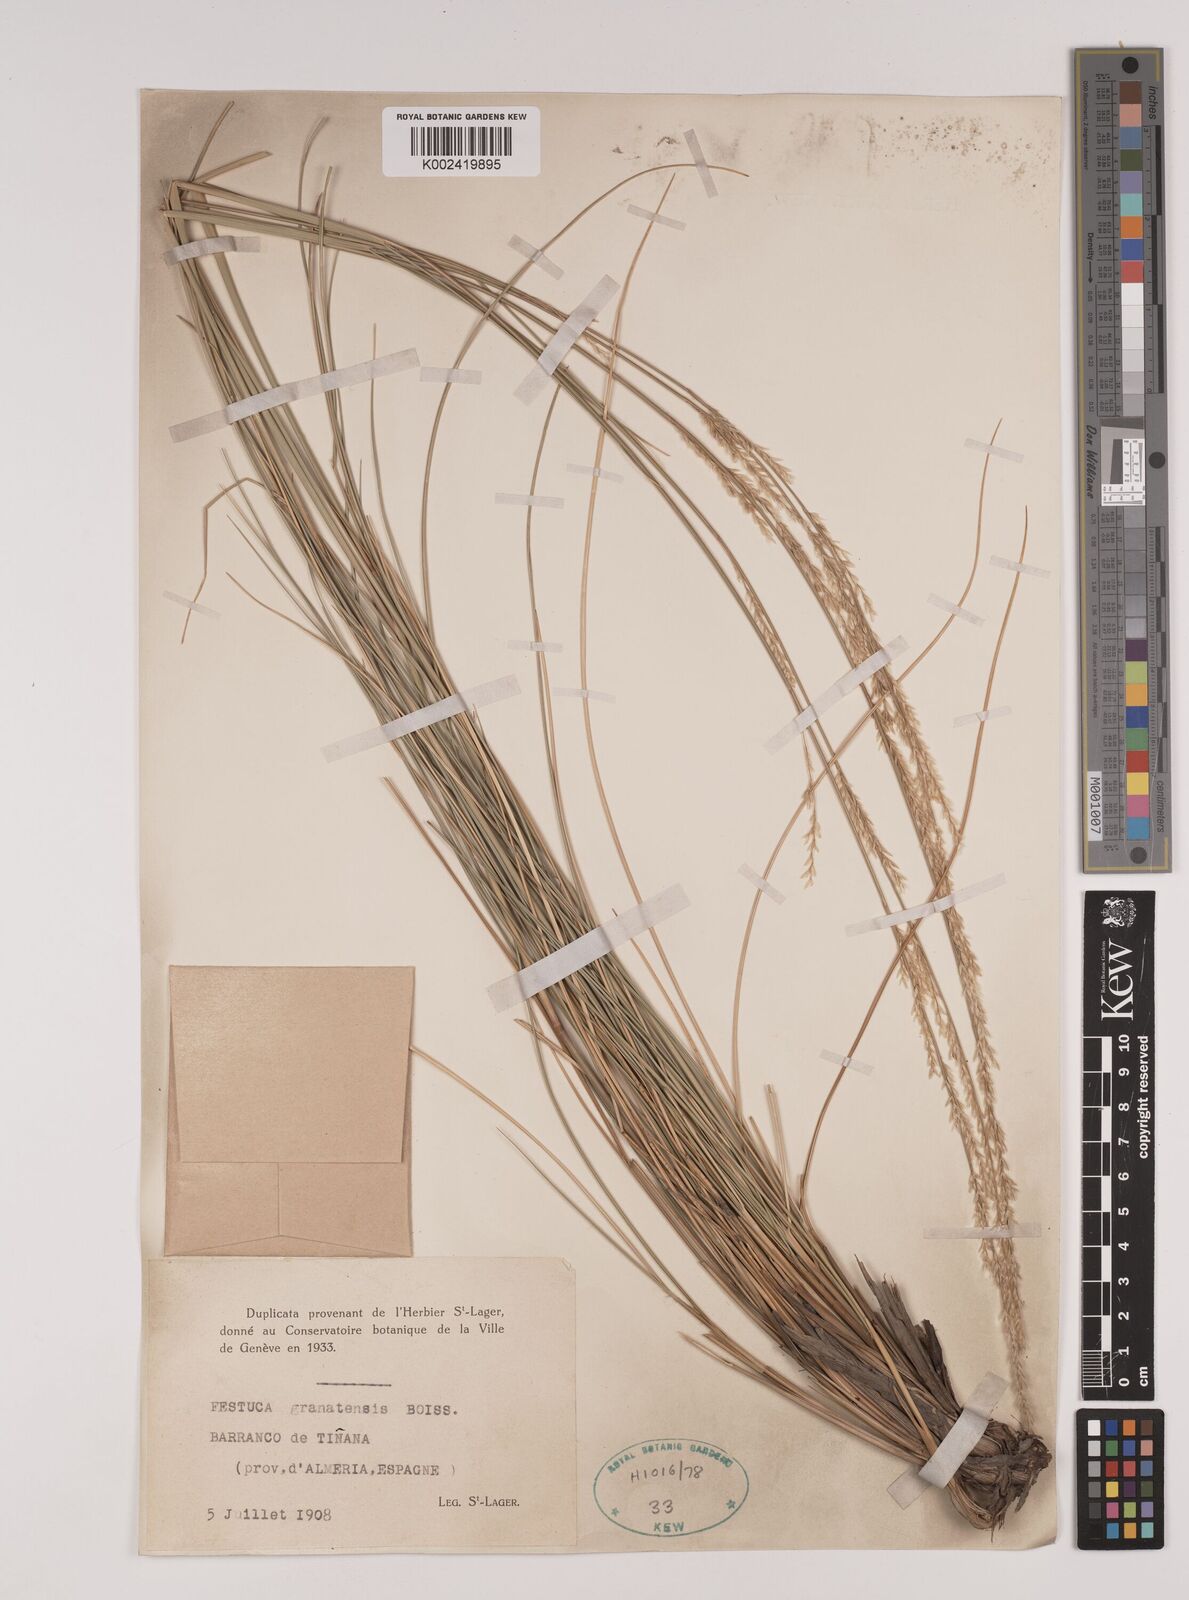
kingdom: Plantae
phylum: Tracheophyta
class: Liliopsida
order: Poales
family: Poaceae
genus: Festuca
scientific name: Festuca scariosa
